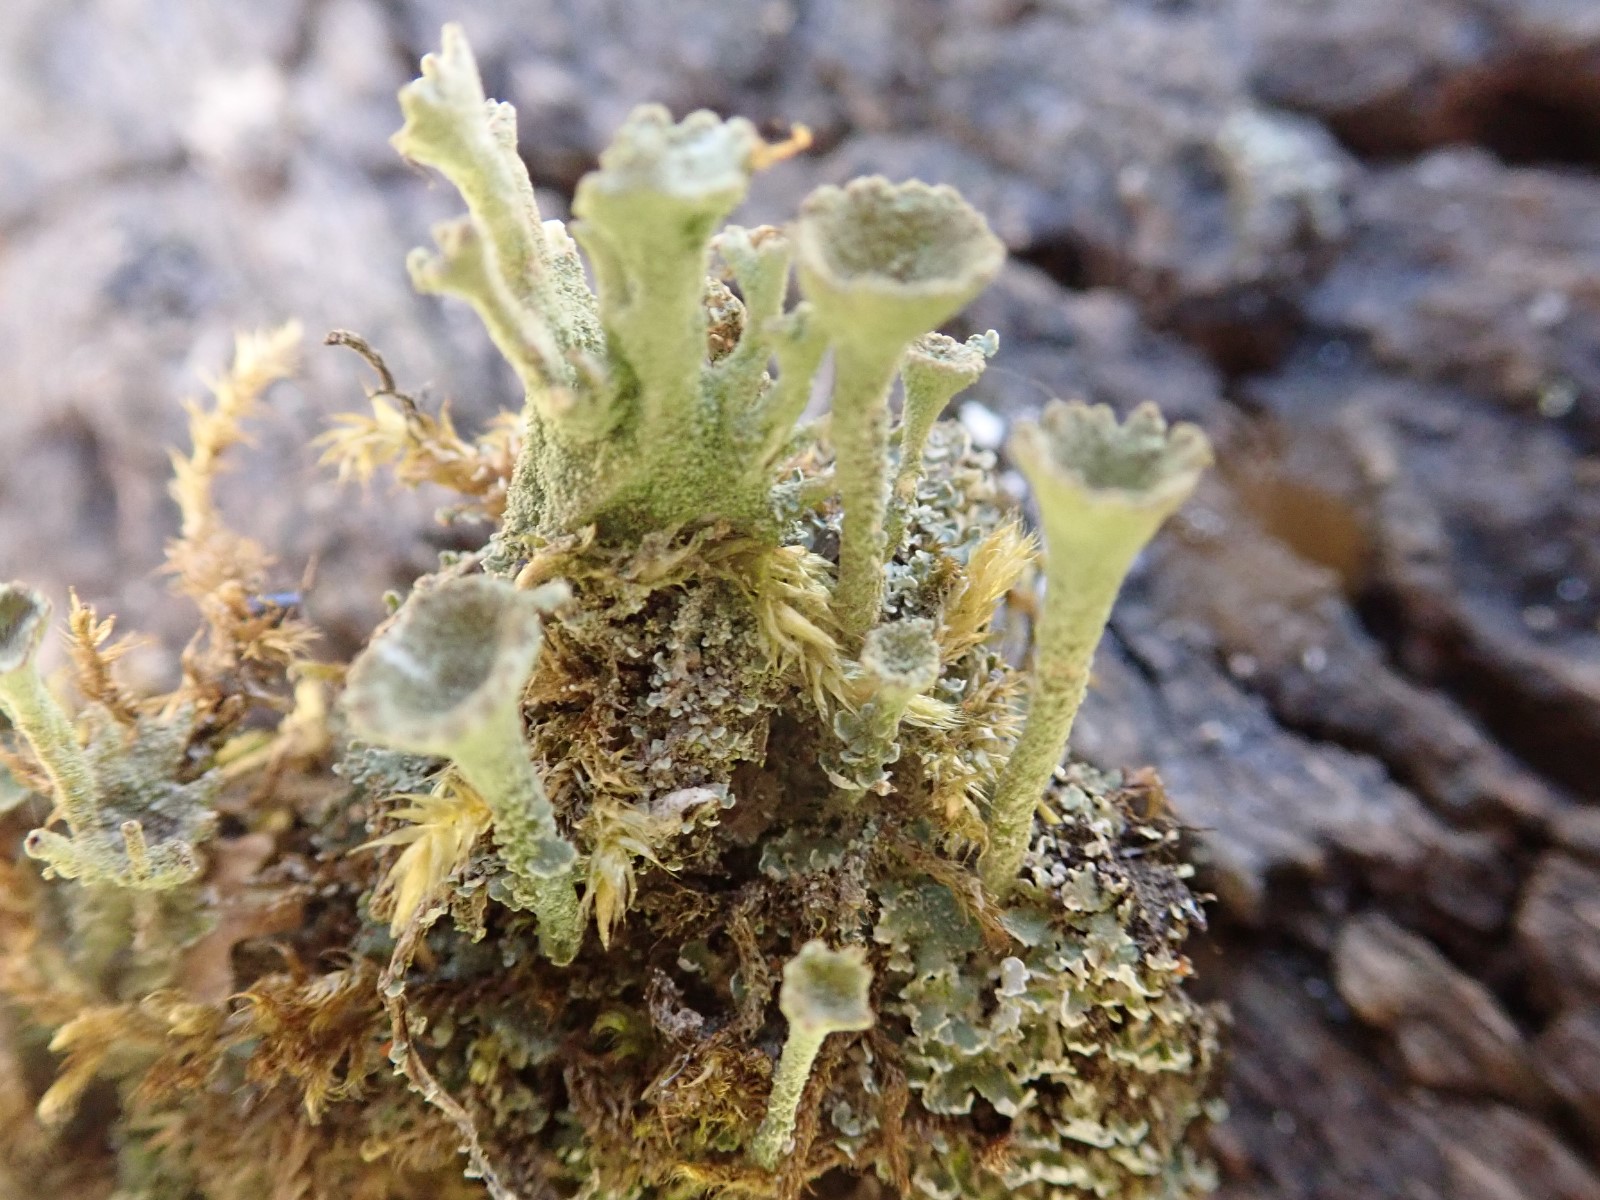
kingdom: Fungi
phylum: Ascomycota
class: Lecanoromycetes
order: Lecanorales
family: Cladoniaceae
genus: Cladonia
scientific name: Cladonia
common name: brungrøn bægerlav
